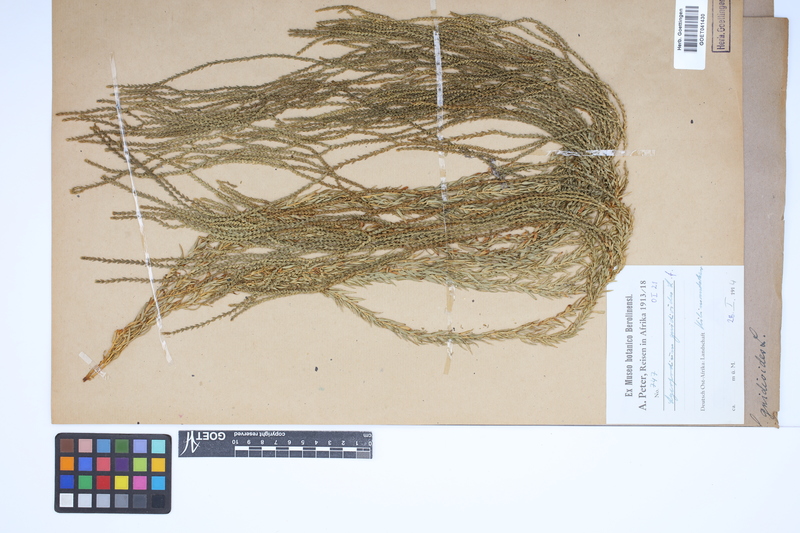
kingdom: Plantae
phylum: Tracheophyta
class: Lycopodiopsida
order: Lycopodiales
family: Lycopodiaceae
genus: Phlegmariurus
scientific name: Phlegmariurus gnidioides
